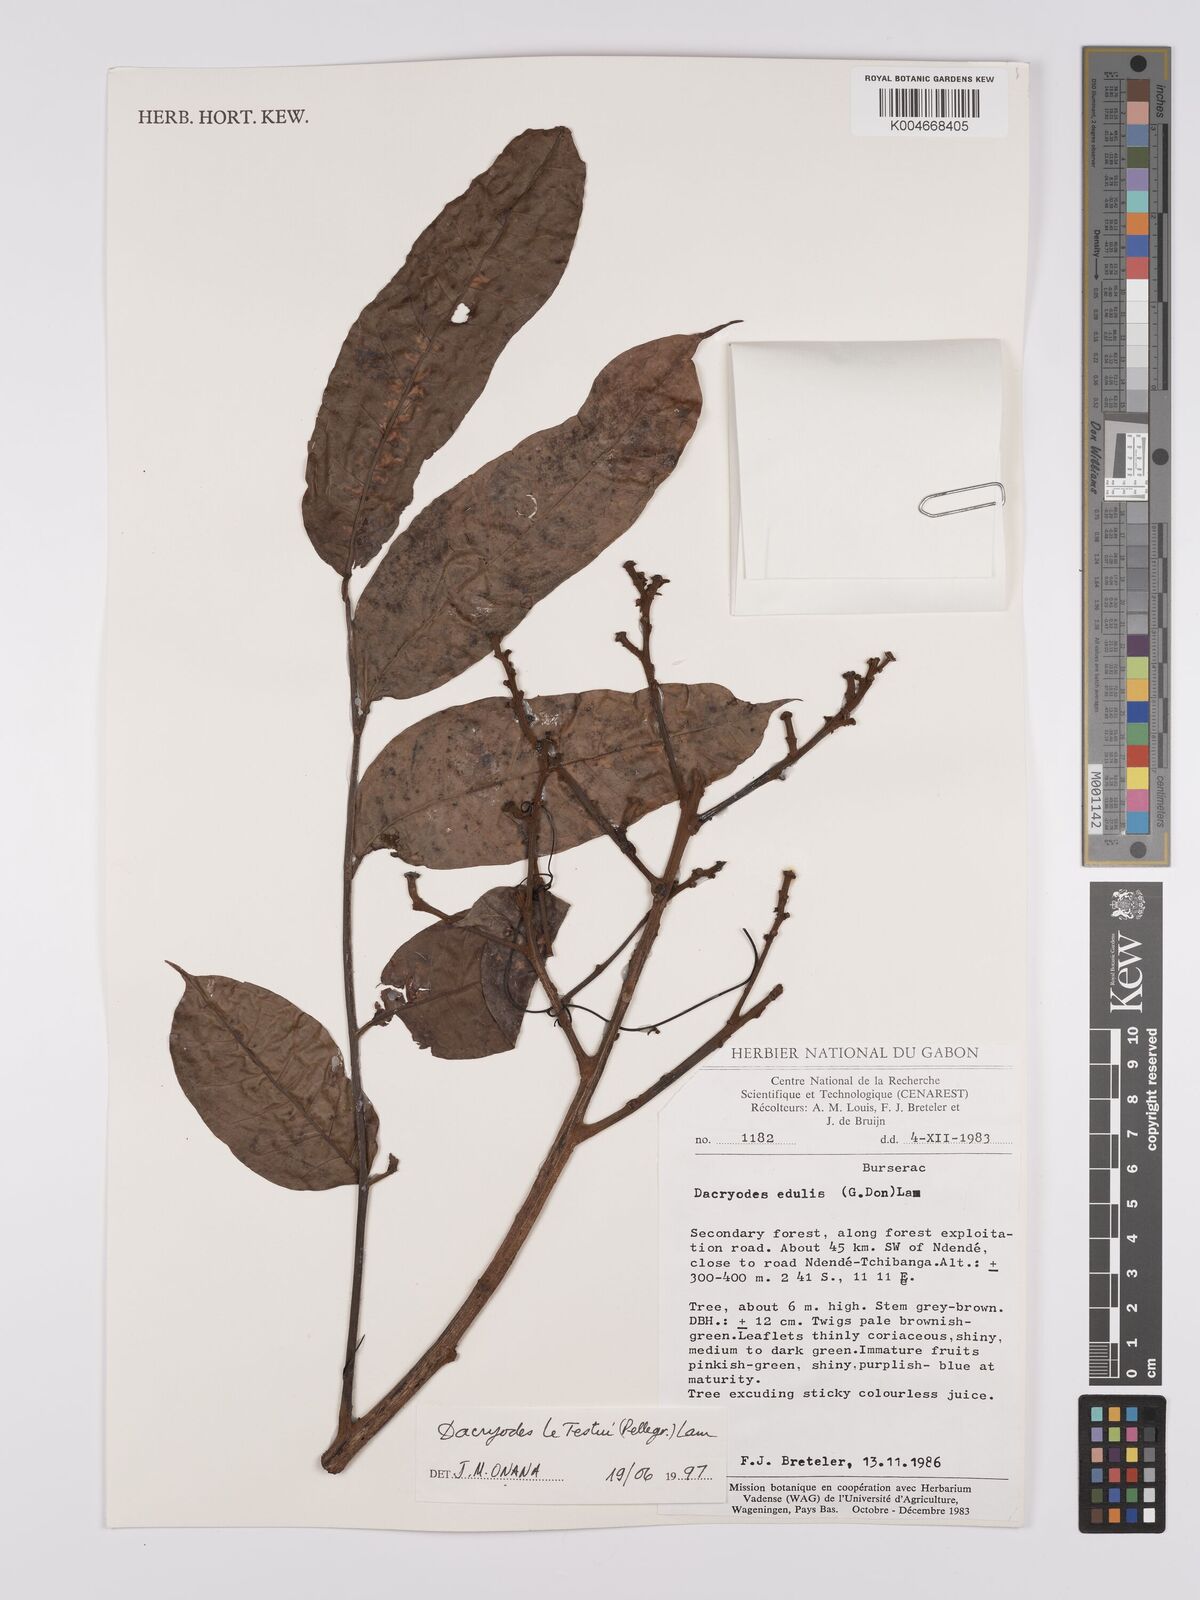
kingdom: Plantae
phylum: Tracheophyta
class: Magnoliopsida
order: Sapindales
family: Burseraceae
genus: Pachylobus
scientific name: Pachylobus letestui
